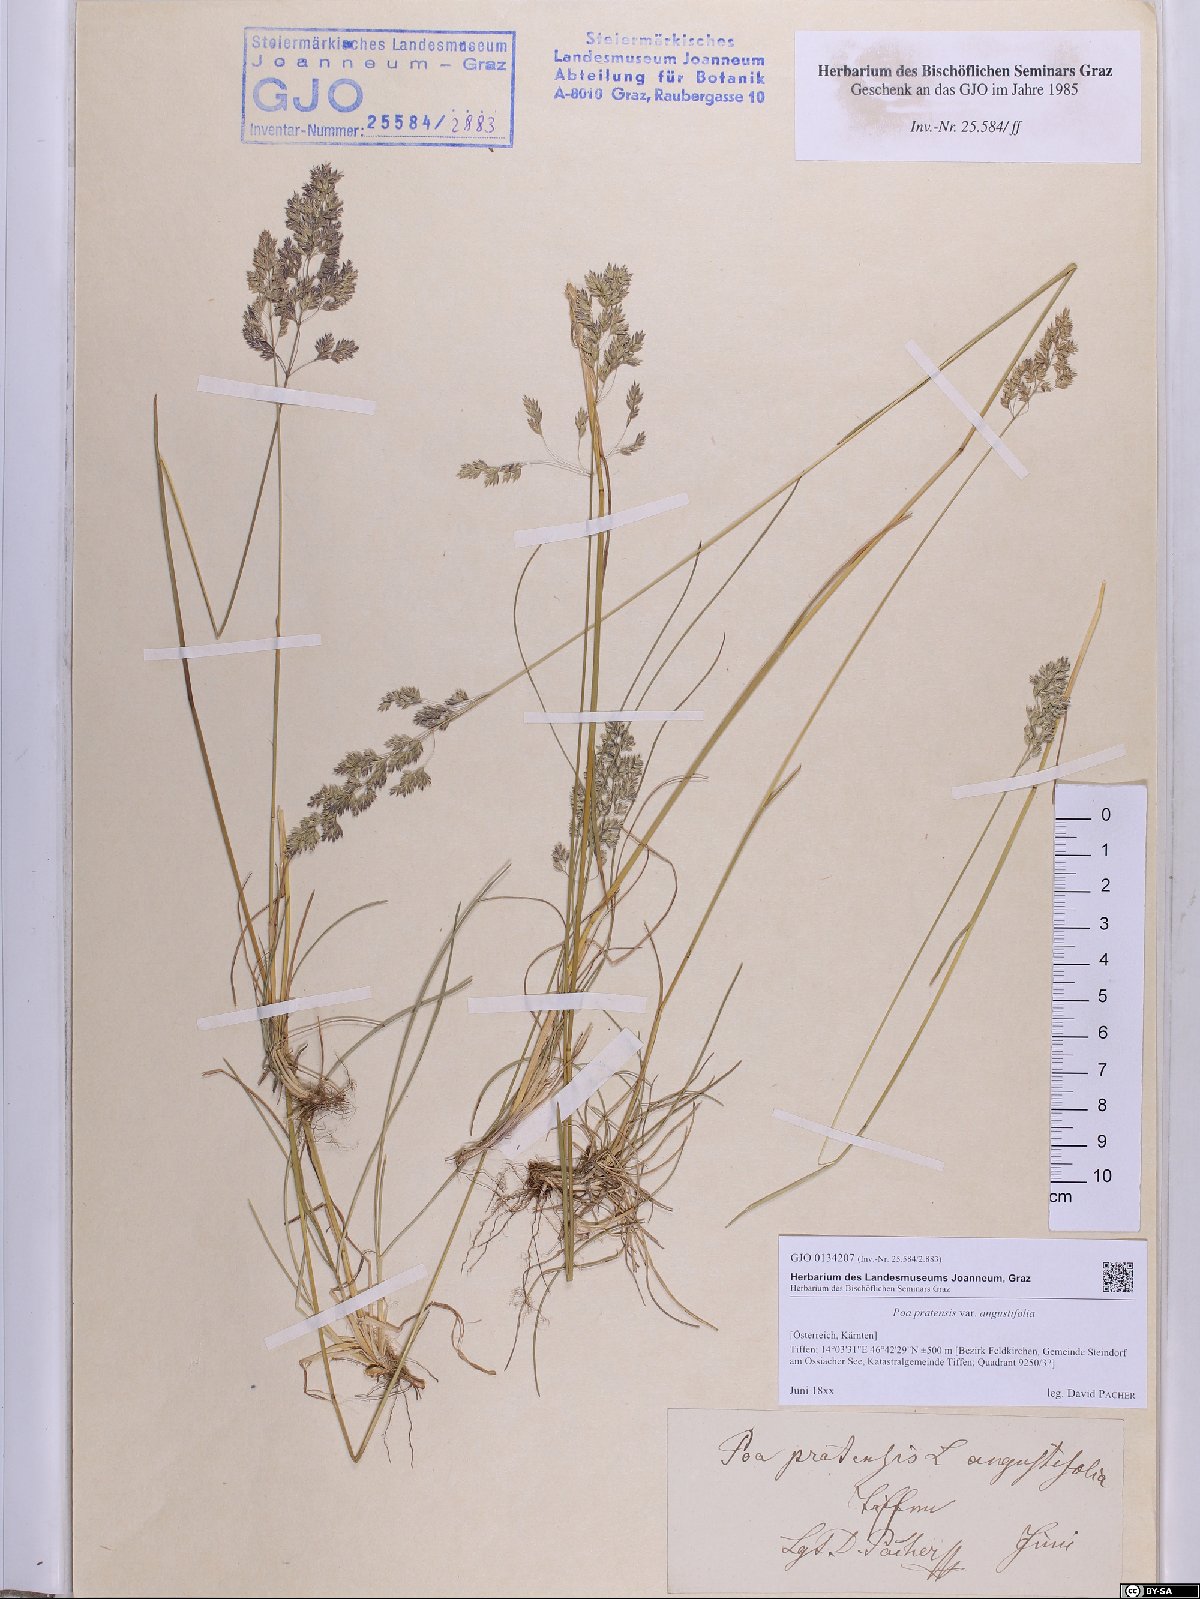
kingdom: Plantae
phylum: Tracheophyta
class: Liliopsida
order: Poales
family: Poaceae
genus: Poa
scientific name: Poa angustifolia
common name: Narrow-leaved meadow-grass
